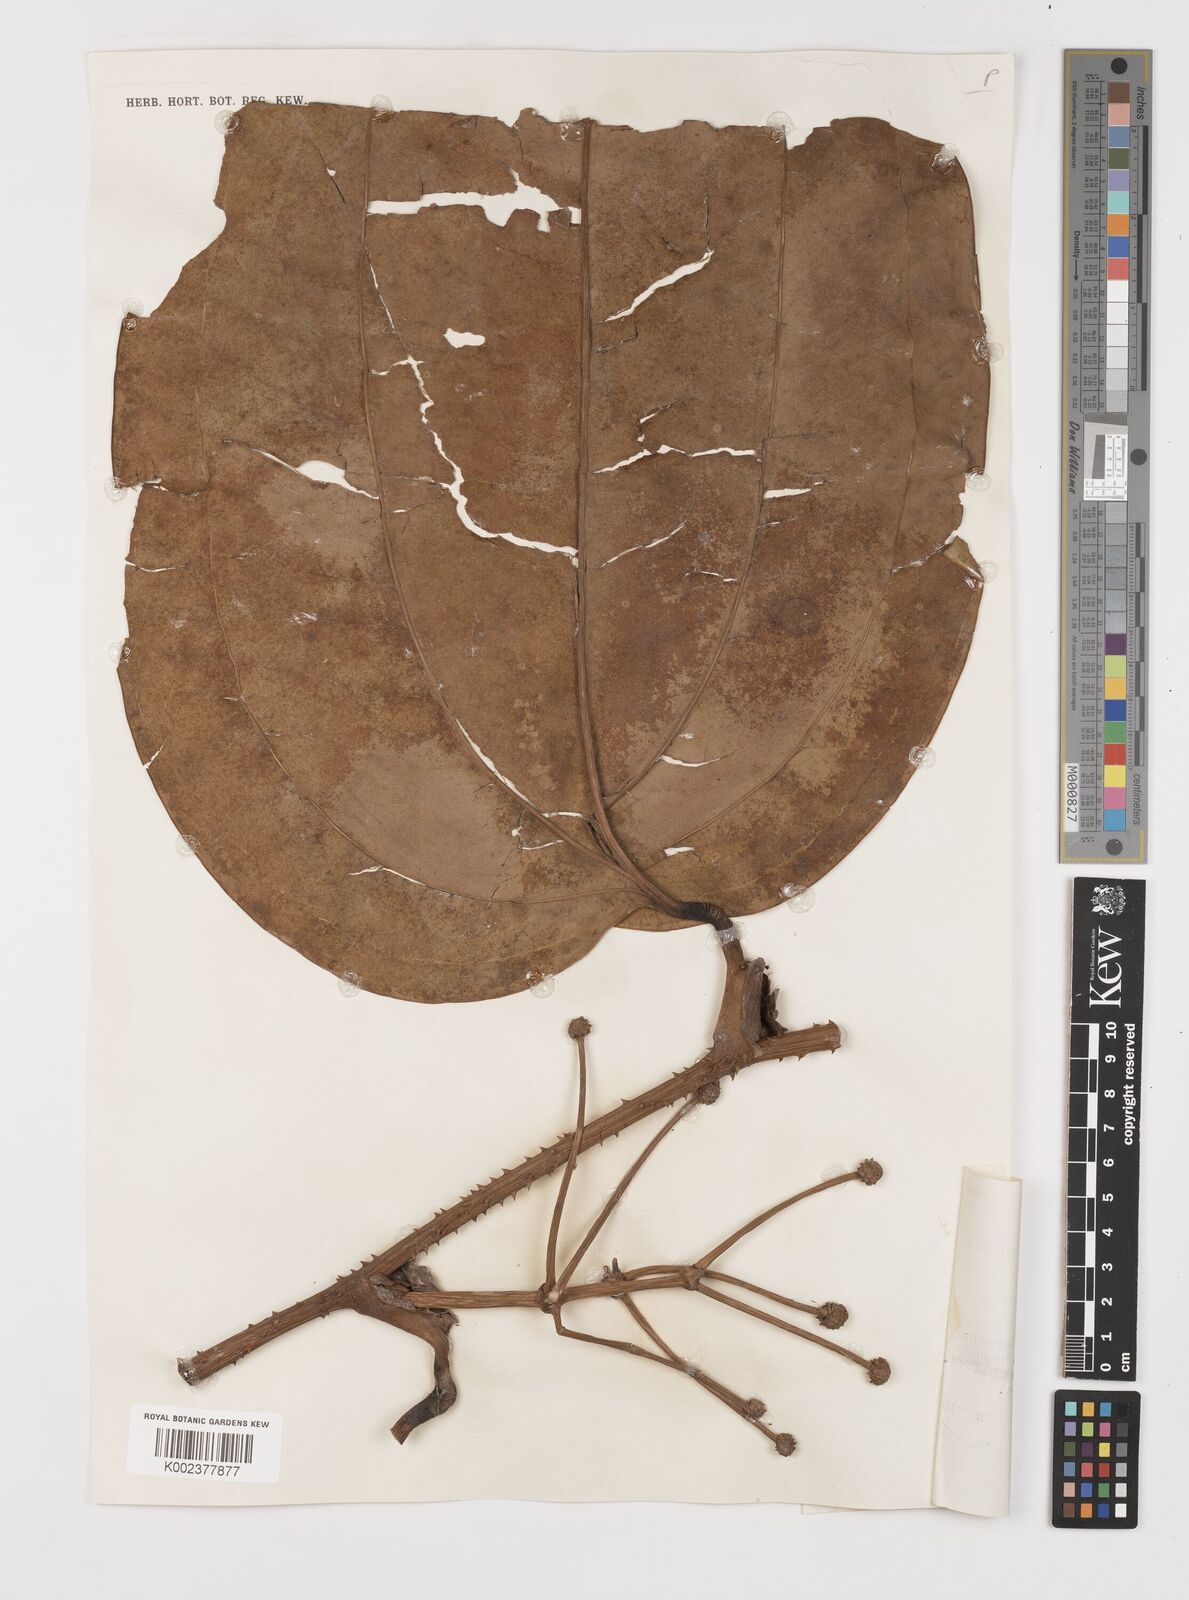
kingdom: Plantae
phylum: Tracheophyta
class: Liliopsida
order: Liliales
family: Smilacaceae
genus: Smilax
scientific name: Smilax
